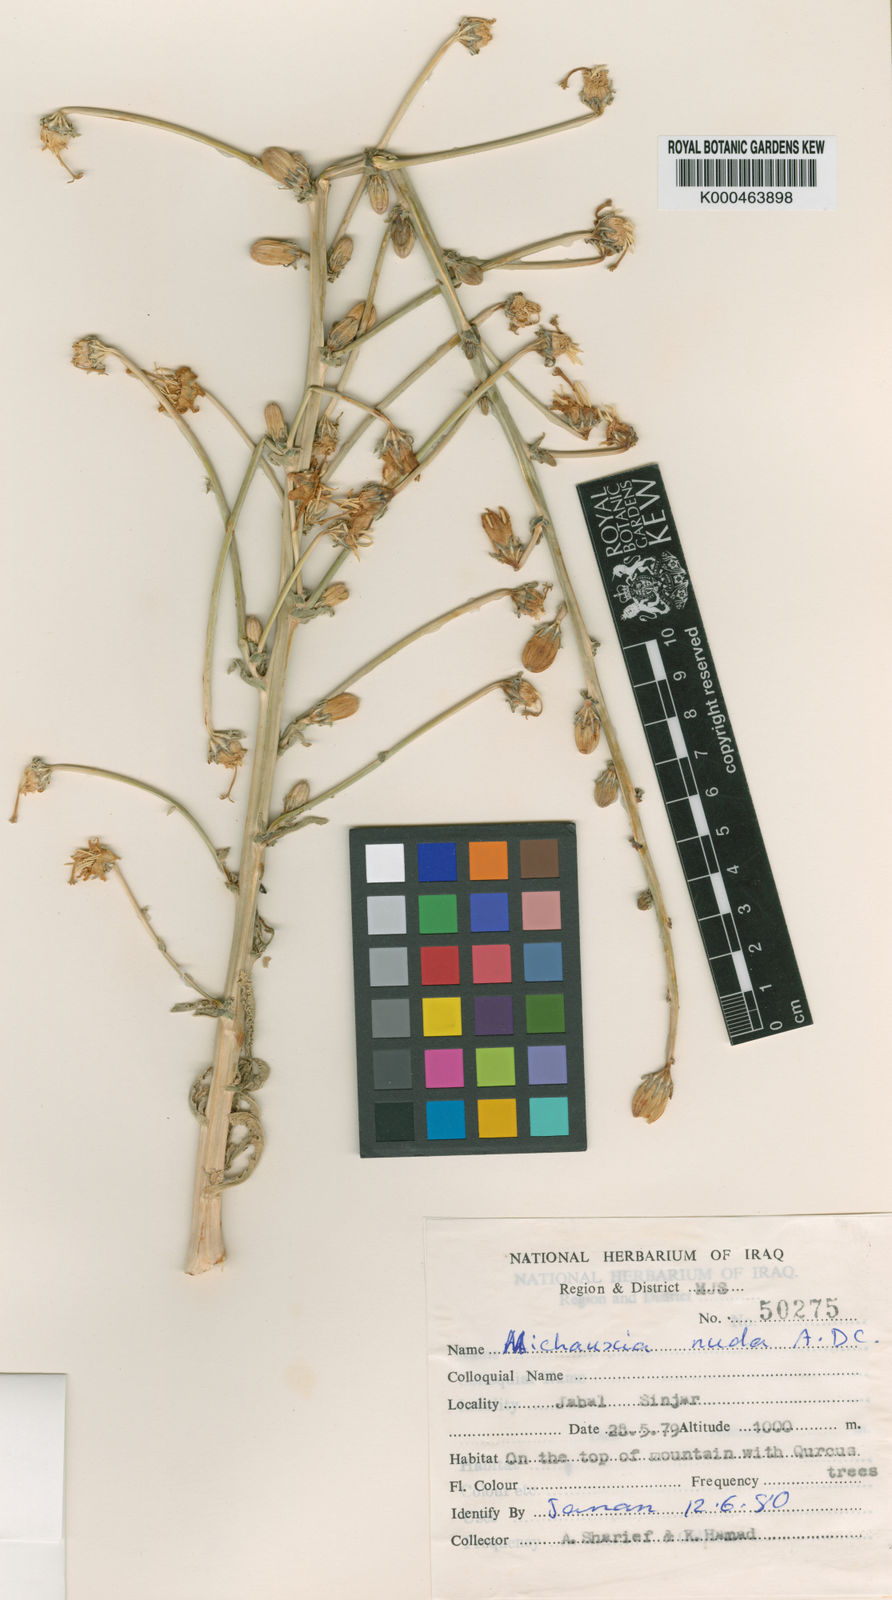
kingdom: Plantae
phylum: Tracheophyta
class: Magnoliopsida
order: Asterales
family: Campanulaceae
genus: Michauxia
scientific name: Michauxia nuda
